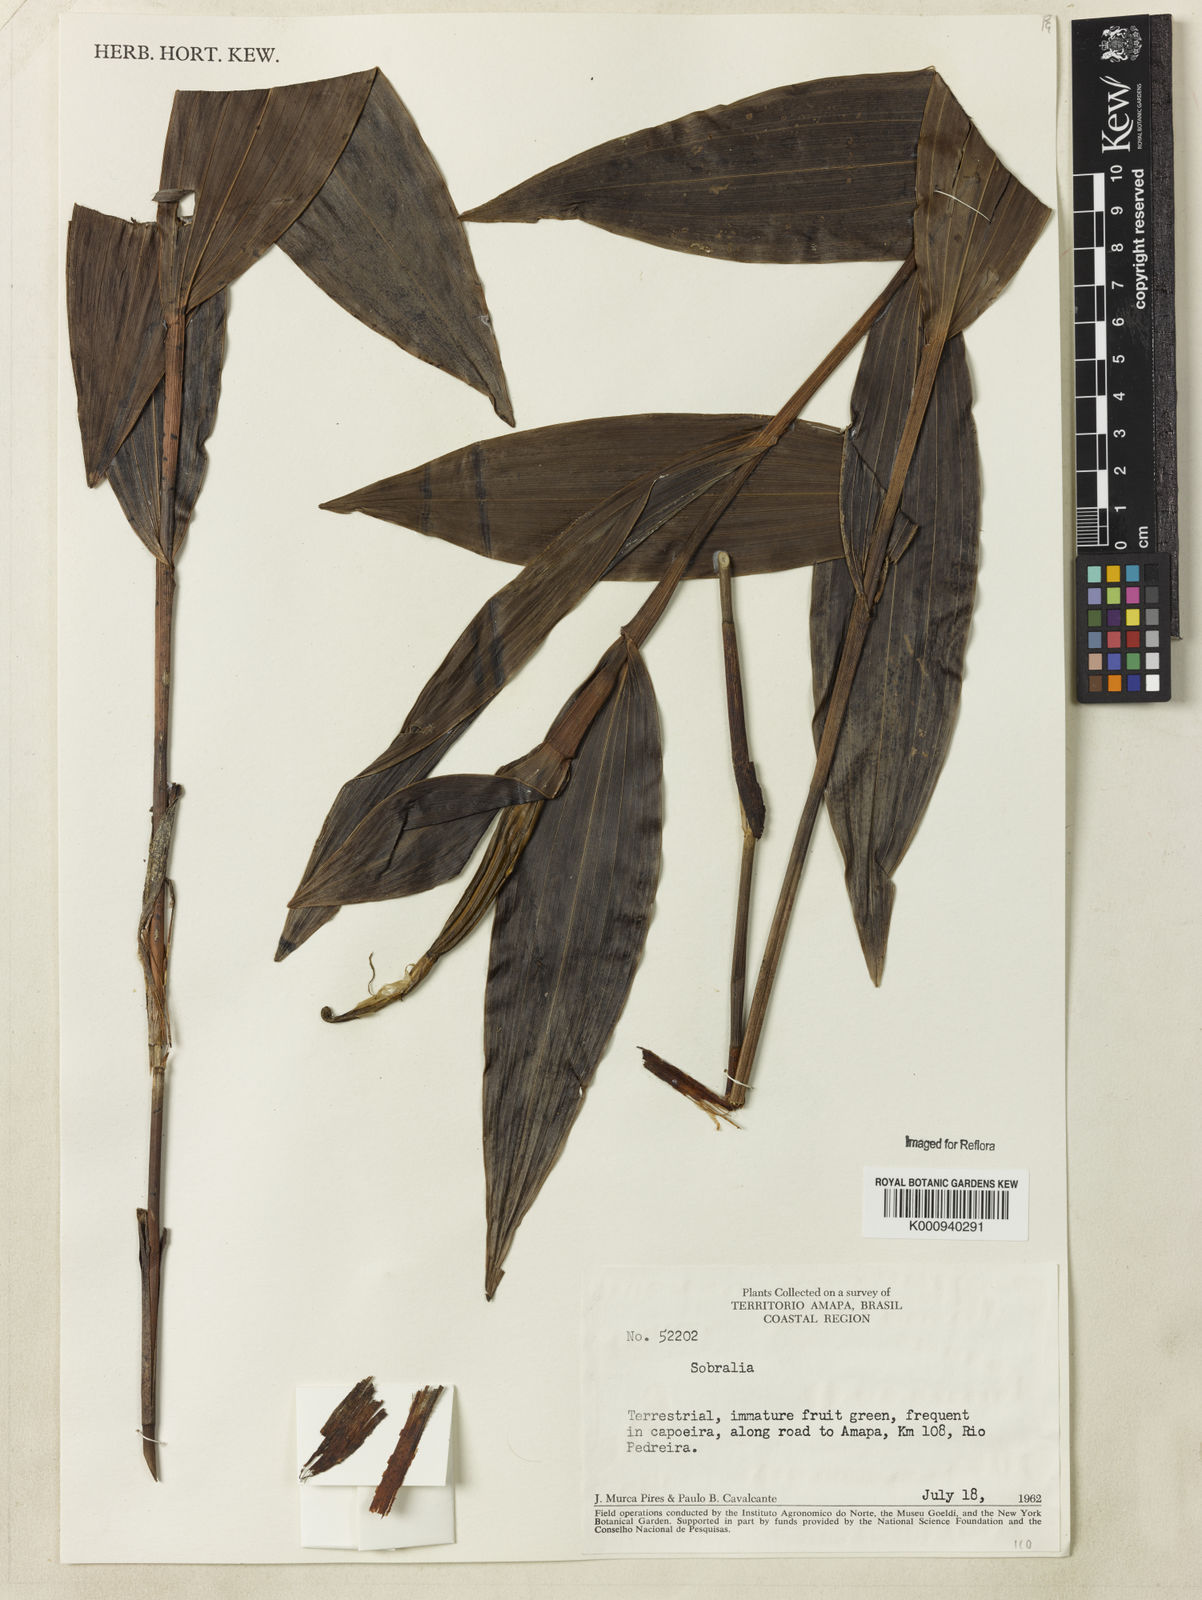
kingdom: Plantae
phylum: Tracheophyta
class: Liliopsida
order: Asparagales
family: Orchidaceae
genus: Sobralia
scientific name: Sobralia
